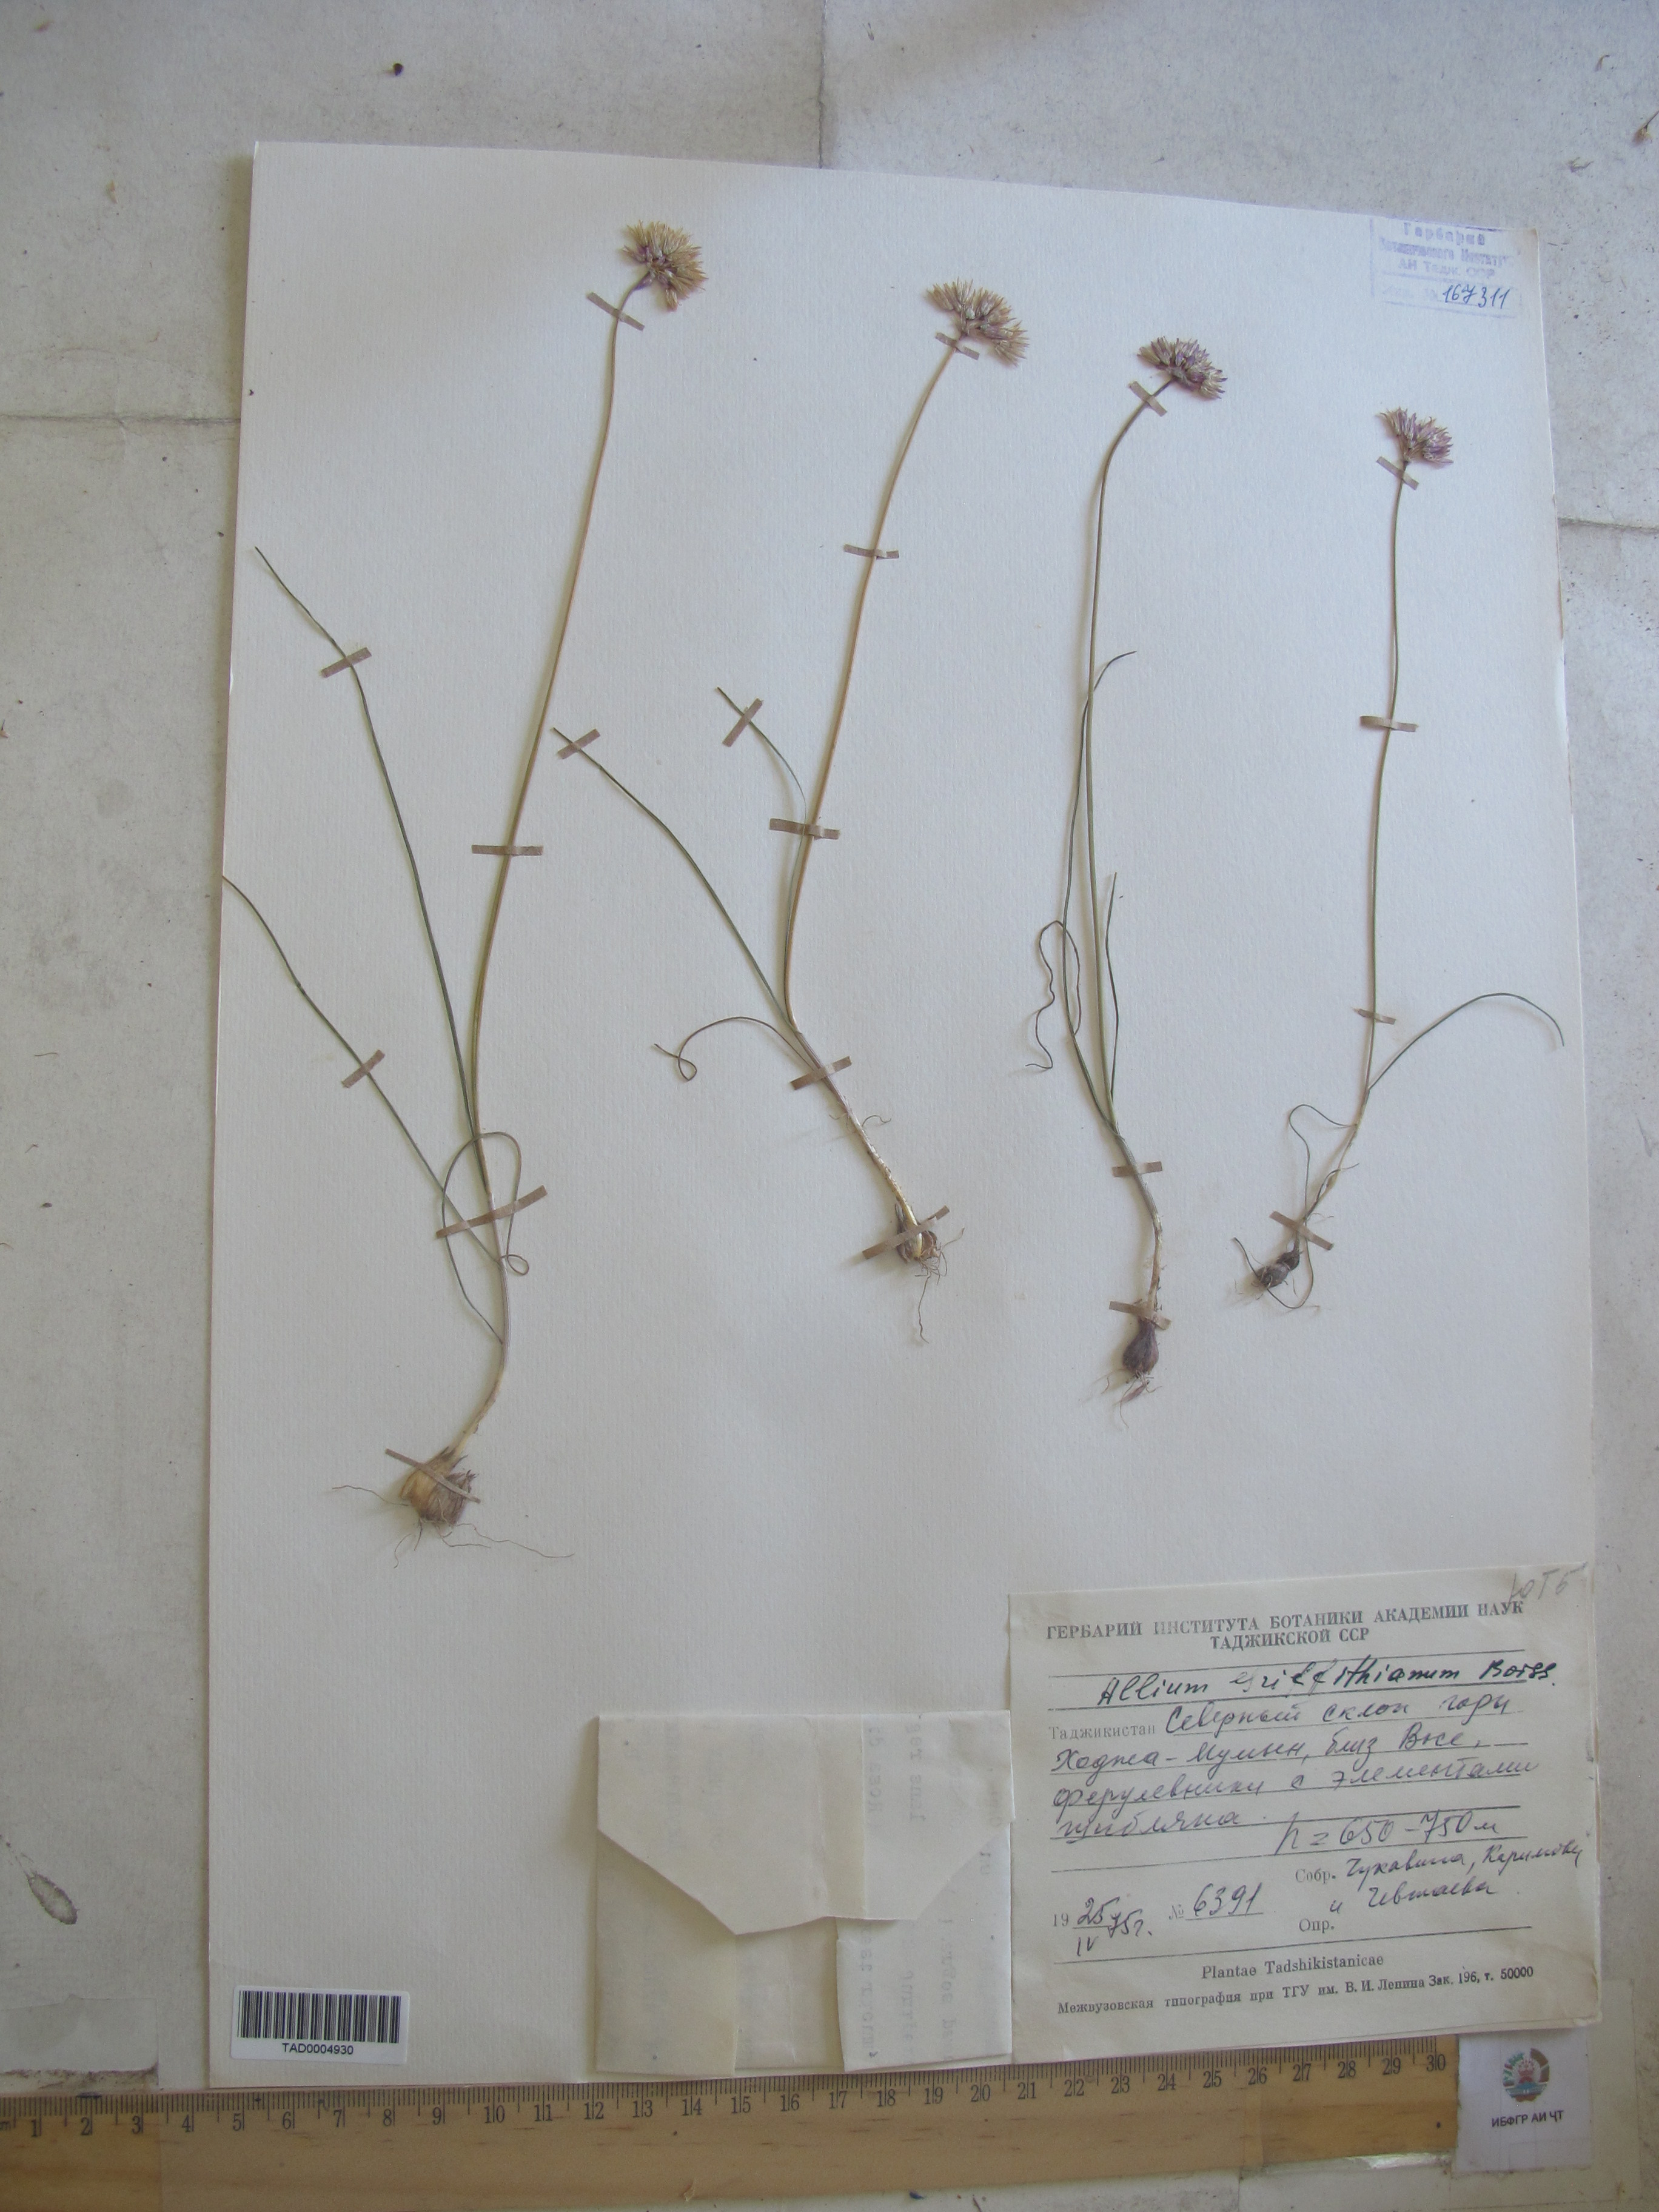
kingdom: Plantae
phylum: Tracheophyta
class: Liliopsida
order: Asparagales
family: Amaryllidaceae
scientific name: Amaryllidaceae
